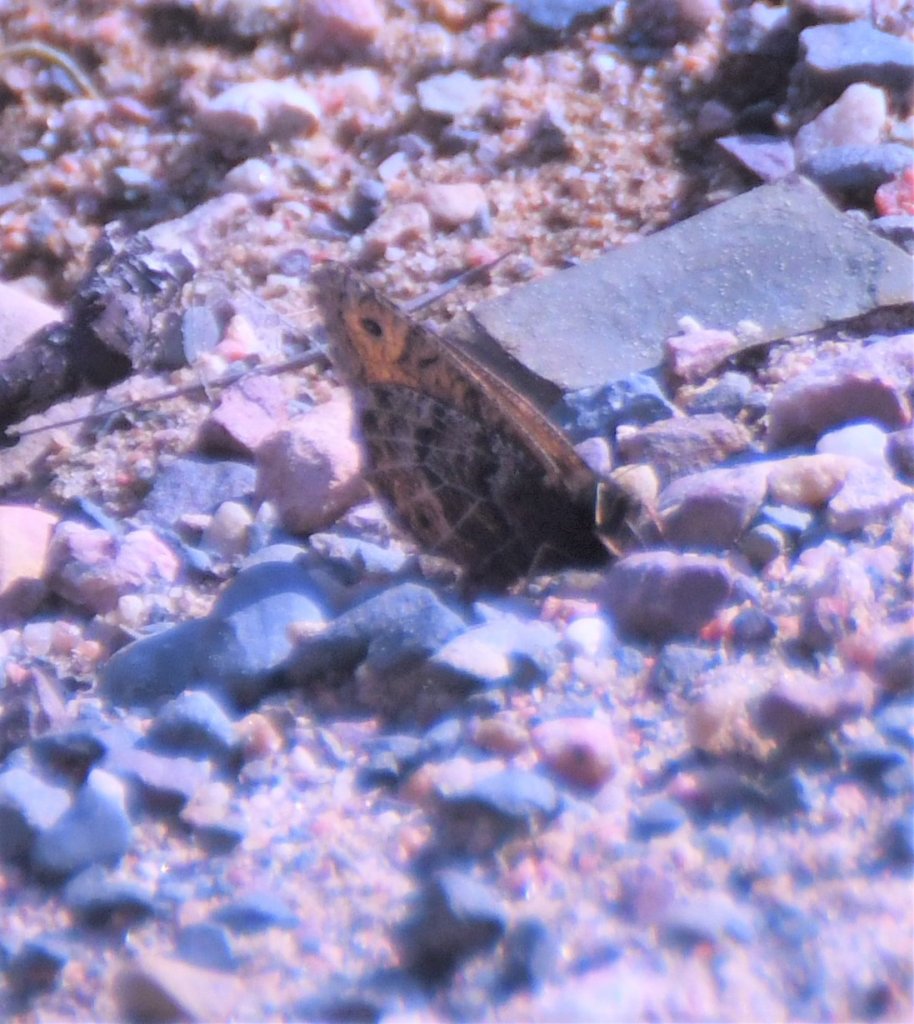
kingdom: Animalia
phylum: Arthropoda
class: Insecta
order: Lepidoptera
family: Nymphalidae
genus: Oeneis
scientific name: Oeneis chryxus
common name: Chryxus Arctic
